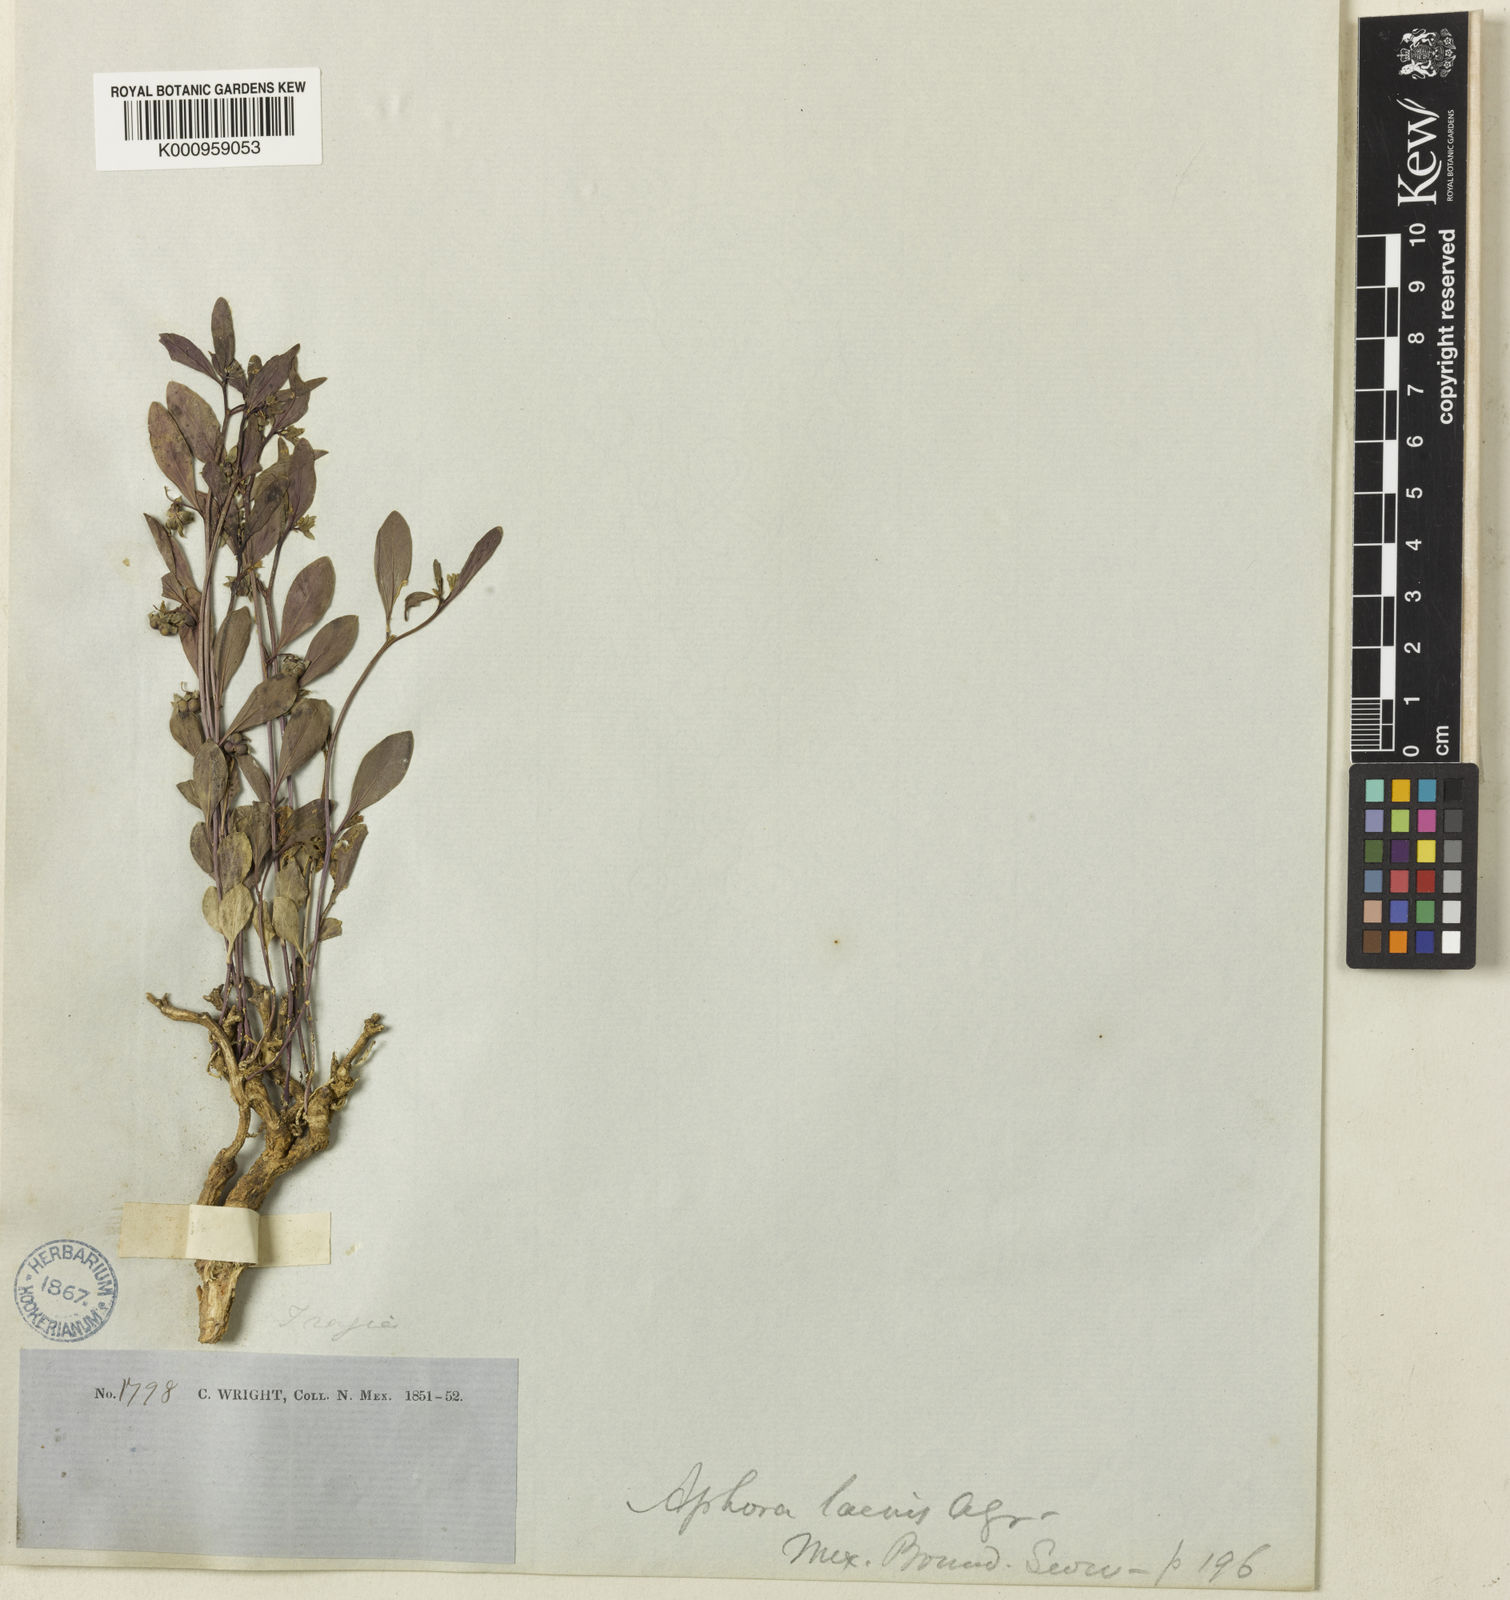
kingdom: Plantae
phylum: Tracheophyta
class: Magnoliopsida
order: Malpighiales
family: Euphorbiaceae
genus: Ditaxis
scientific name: Ditaxis humilis
